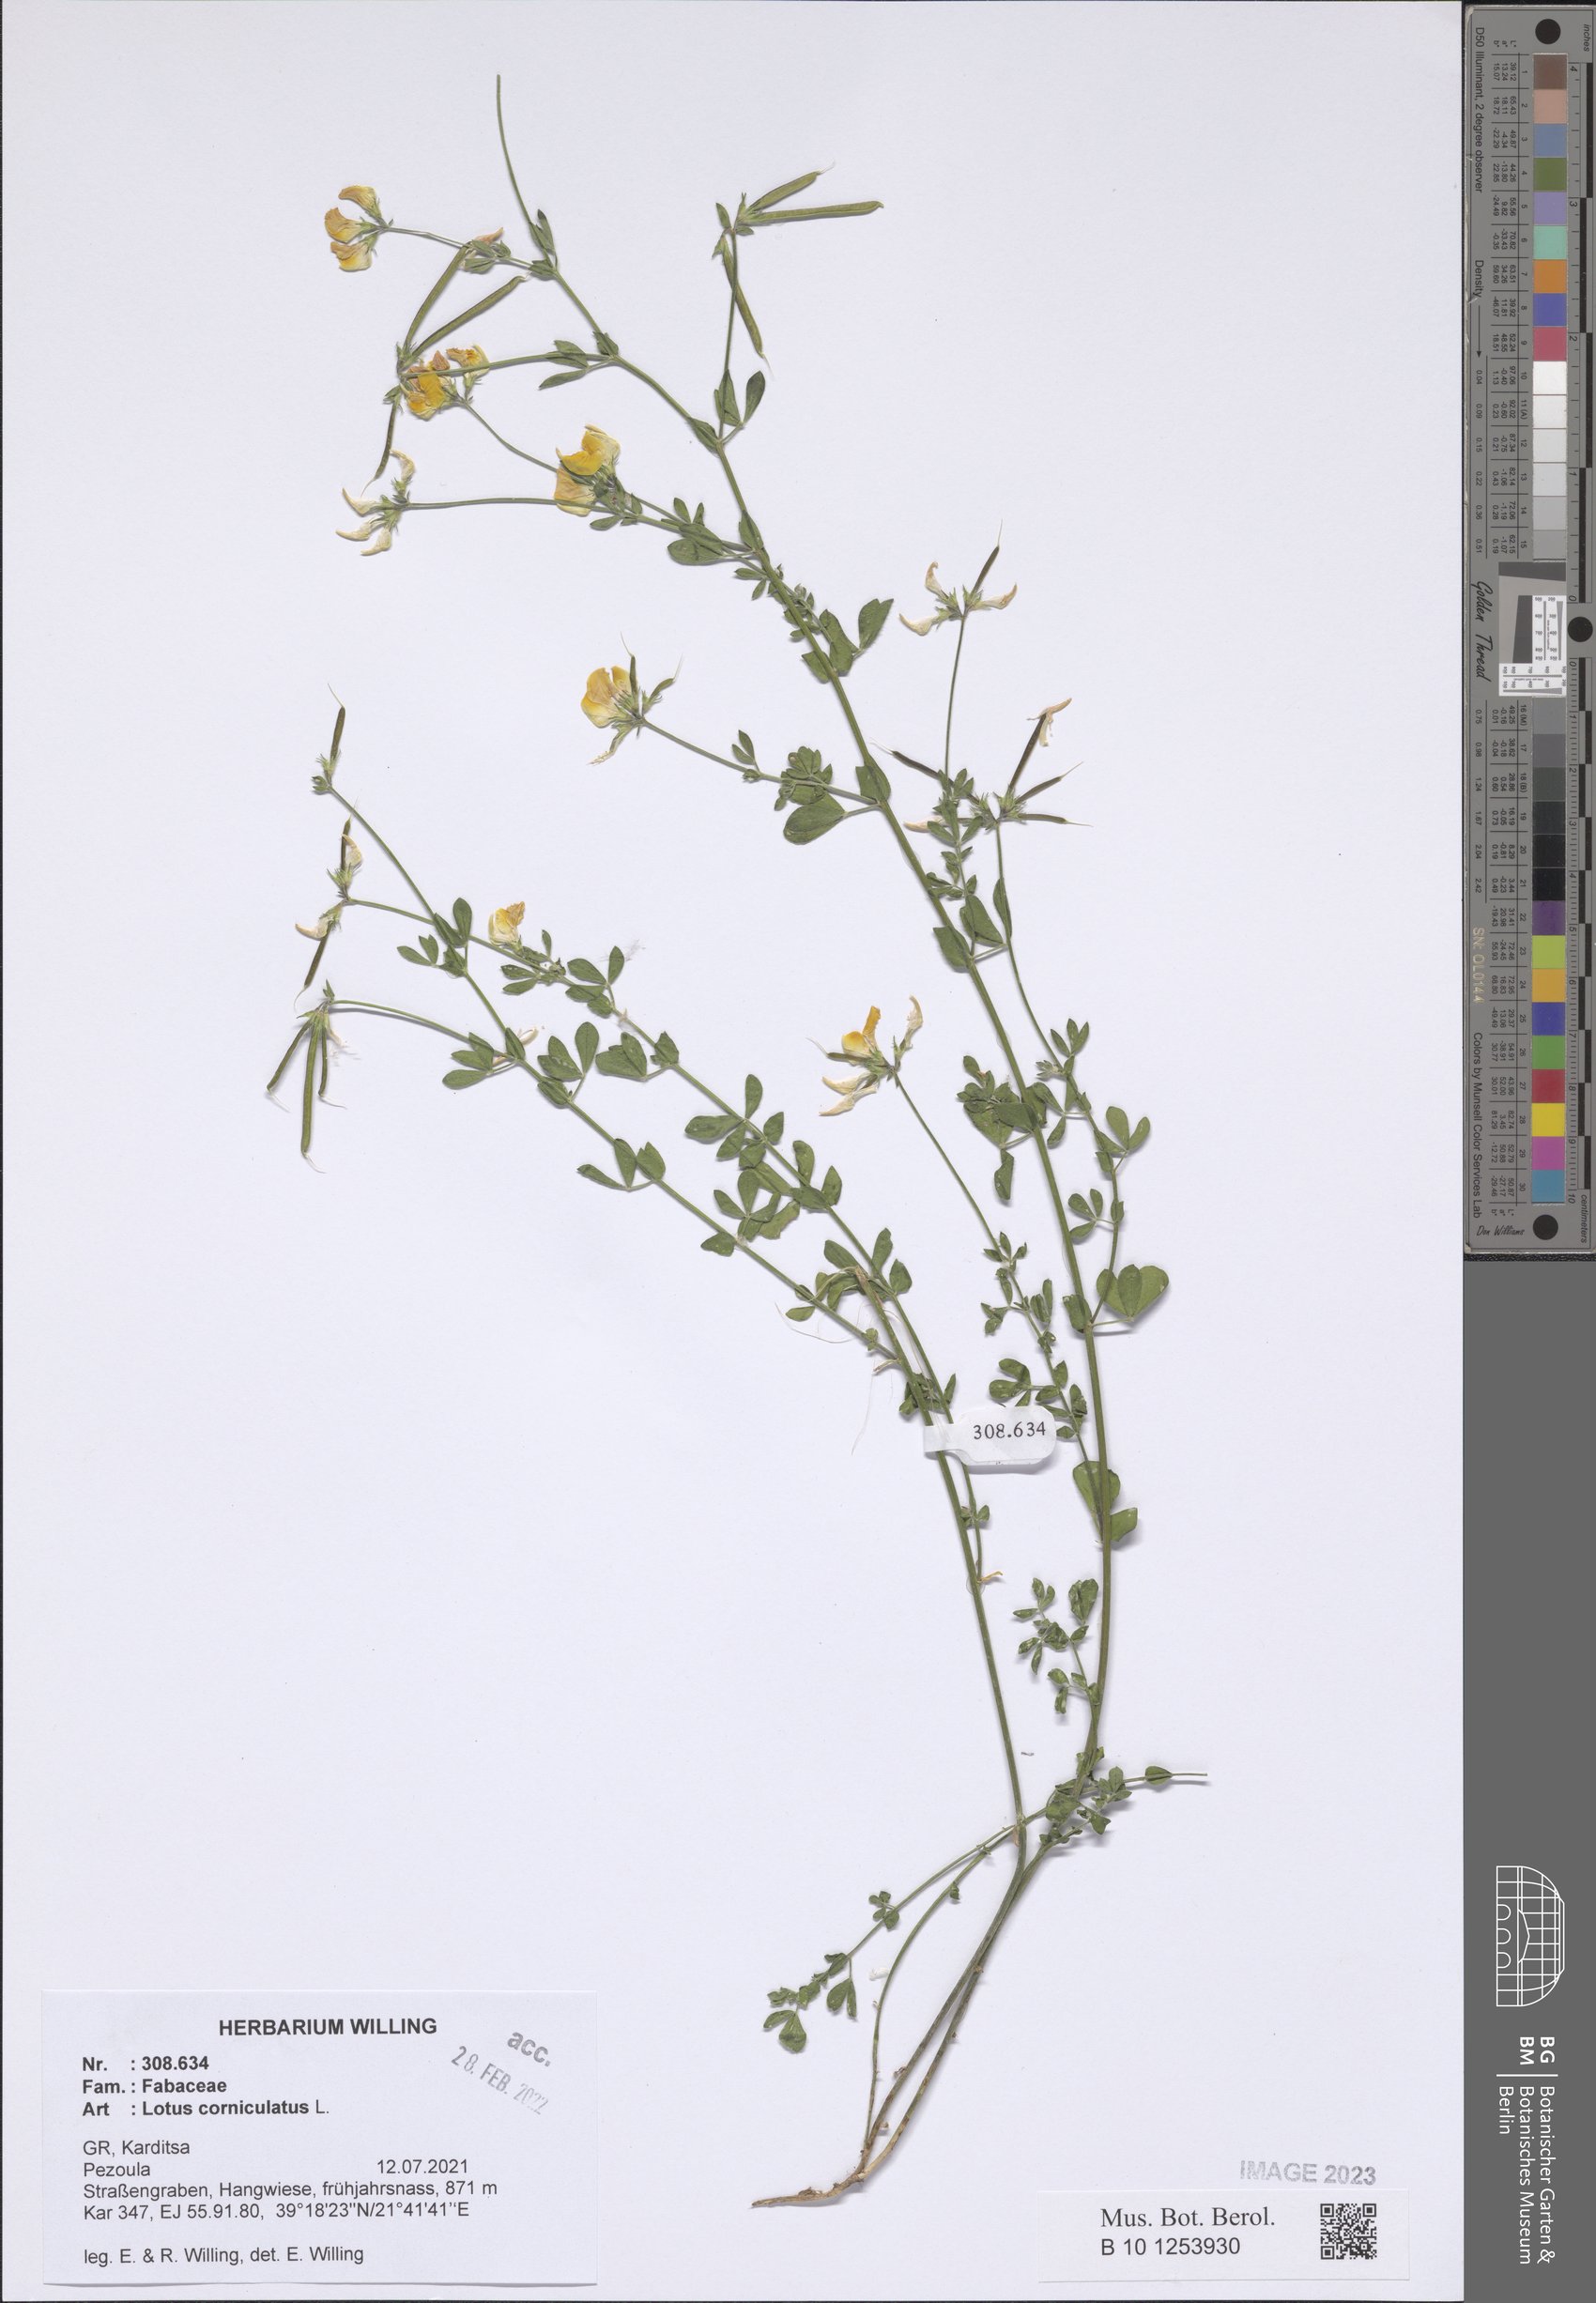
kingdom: Plantae
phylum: Tracheophyta
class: Magnoliopsida
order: Fabales
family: Fabaceae
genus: Lotus
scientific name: Lotus corniculatus
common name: Common bird's-foot-trefoil
